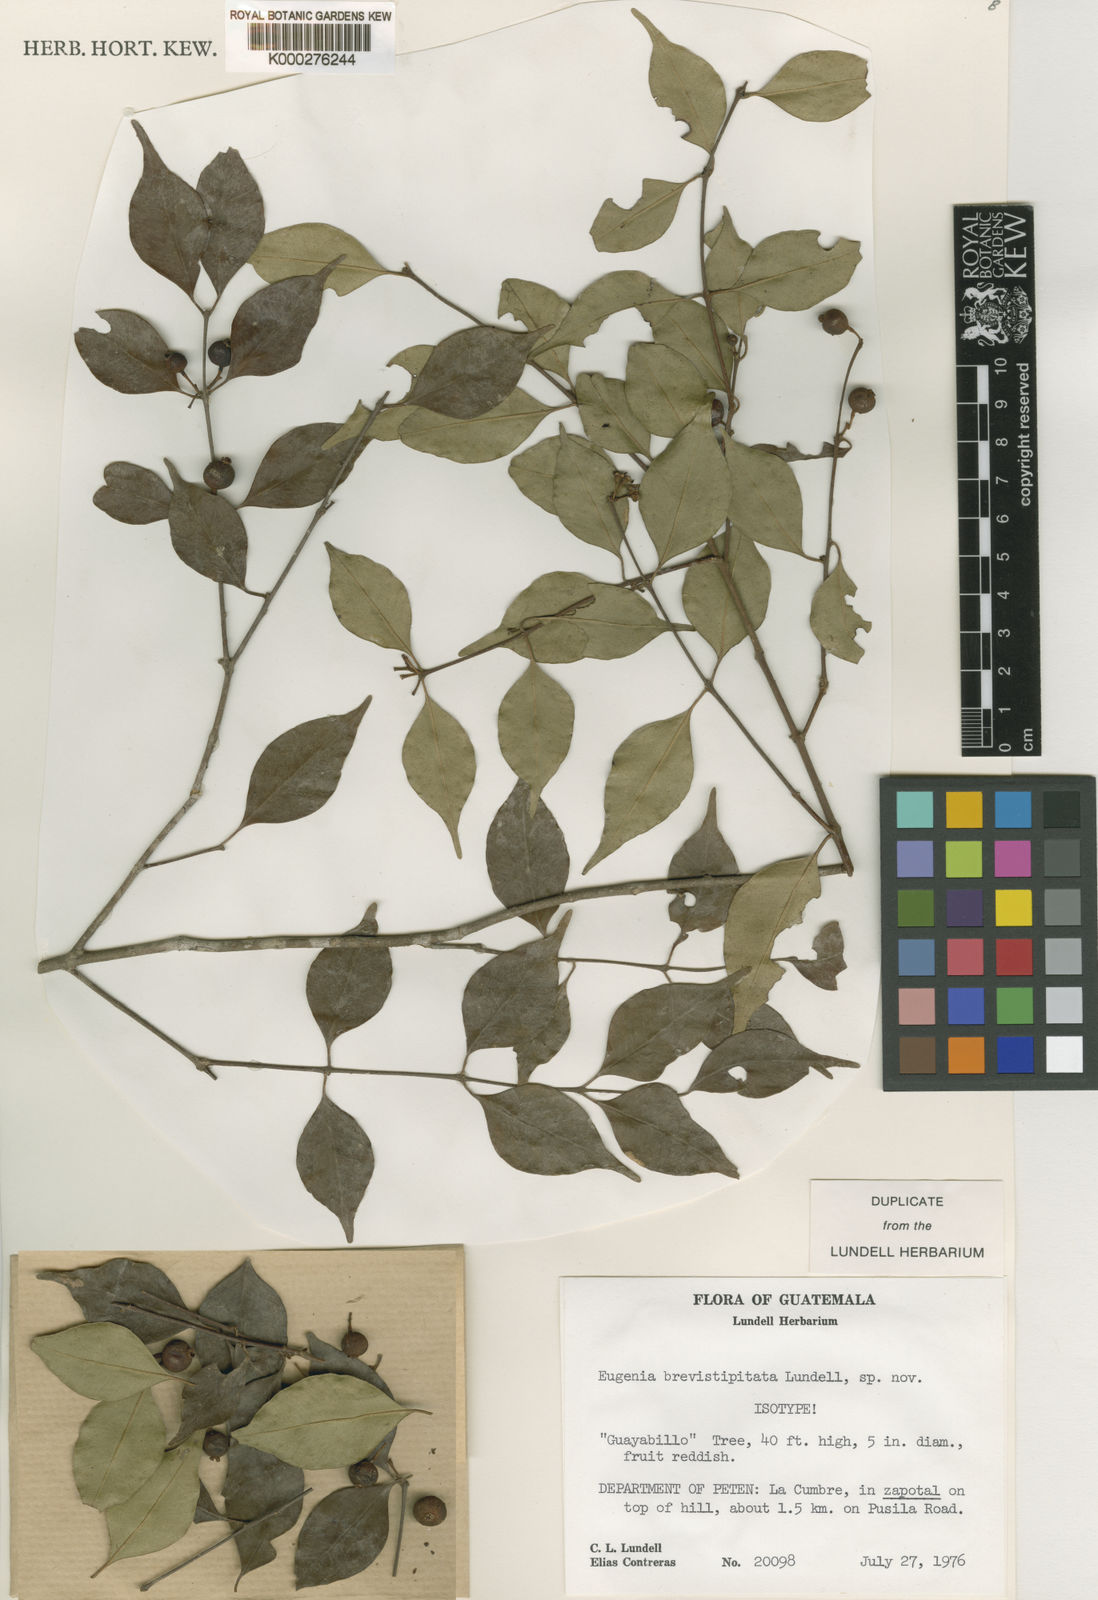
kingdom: Plantae
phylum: Tracheophyta
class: Magnoliopsida
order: Myrtales
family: Myrtaceae
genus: Eugenia
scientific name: Eugenia
